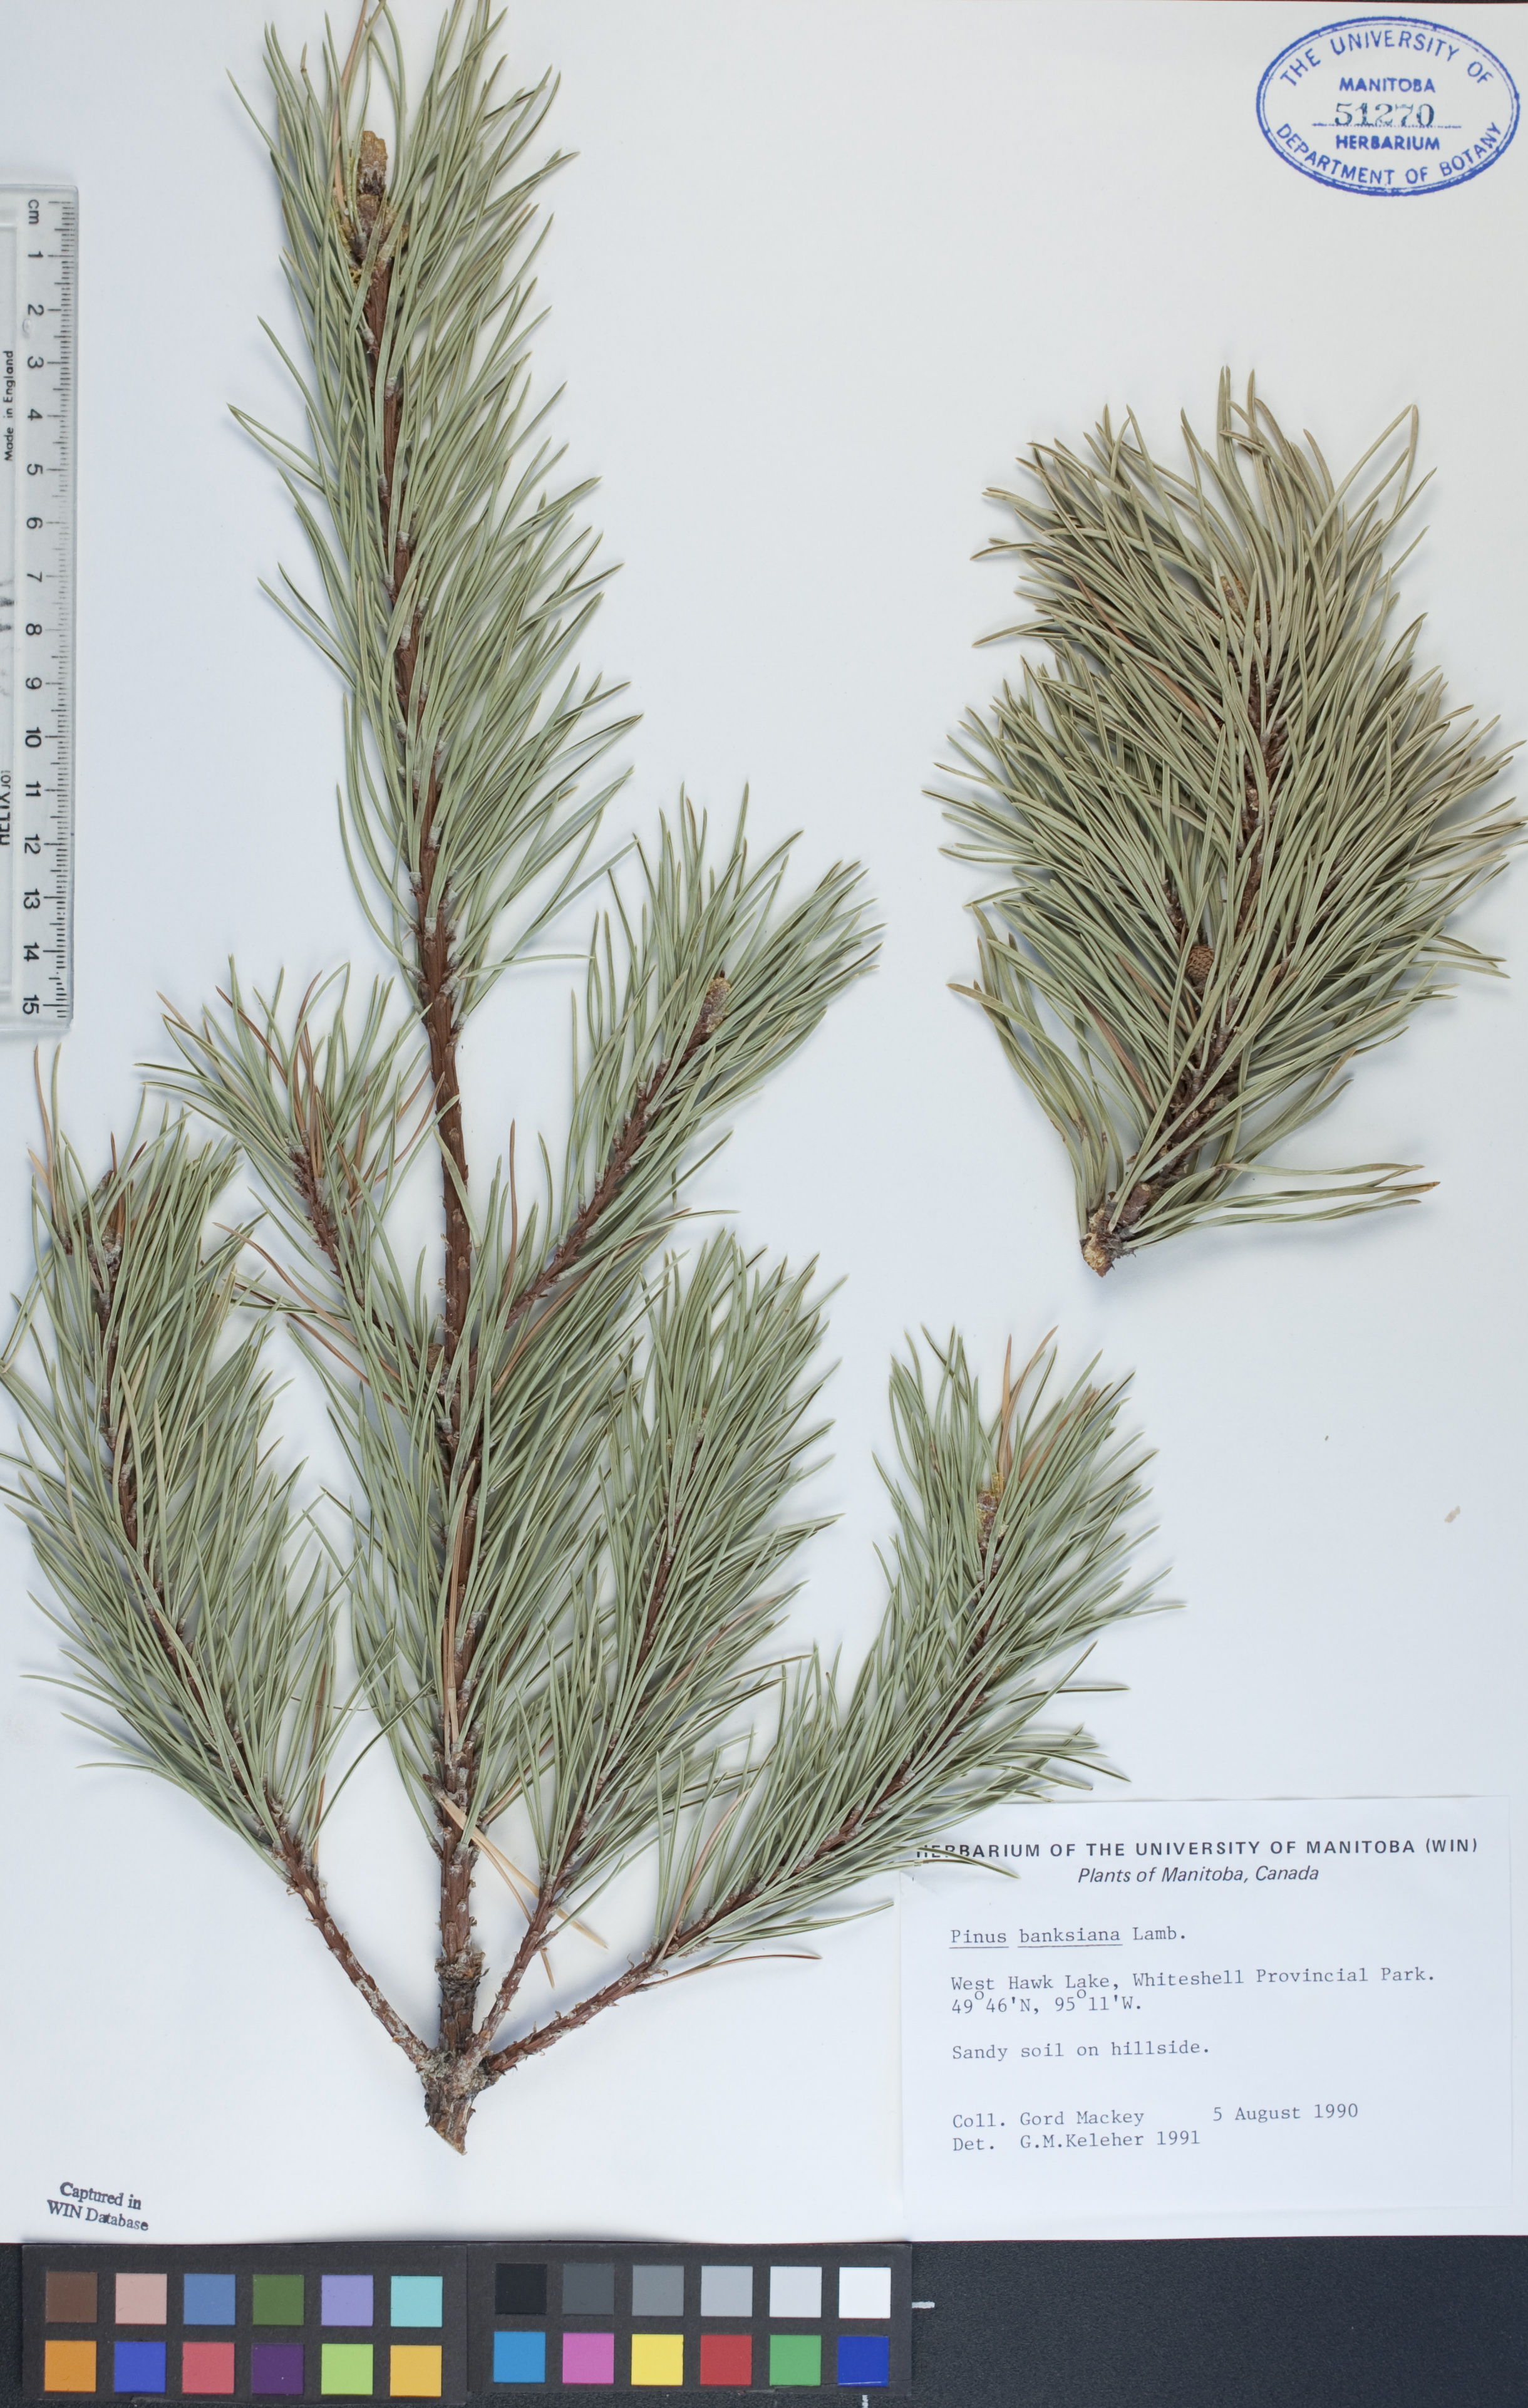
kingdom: Plantae
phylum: Tracheophyta
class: Pinopsida
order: Pinales
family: Pinaceae
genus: Pinus
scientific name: Pinus banksiana
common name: Jack pine
